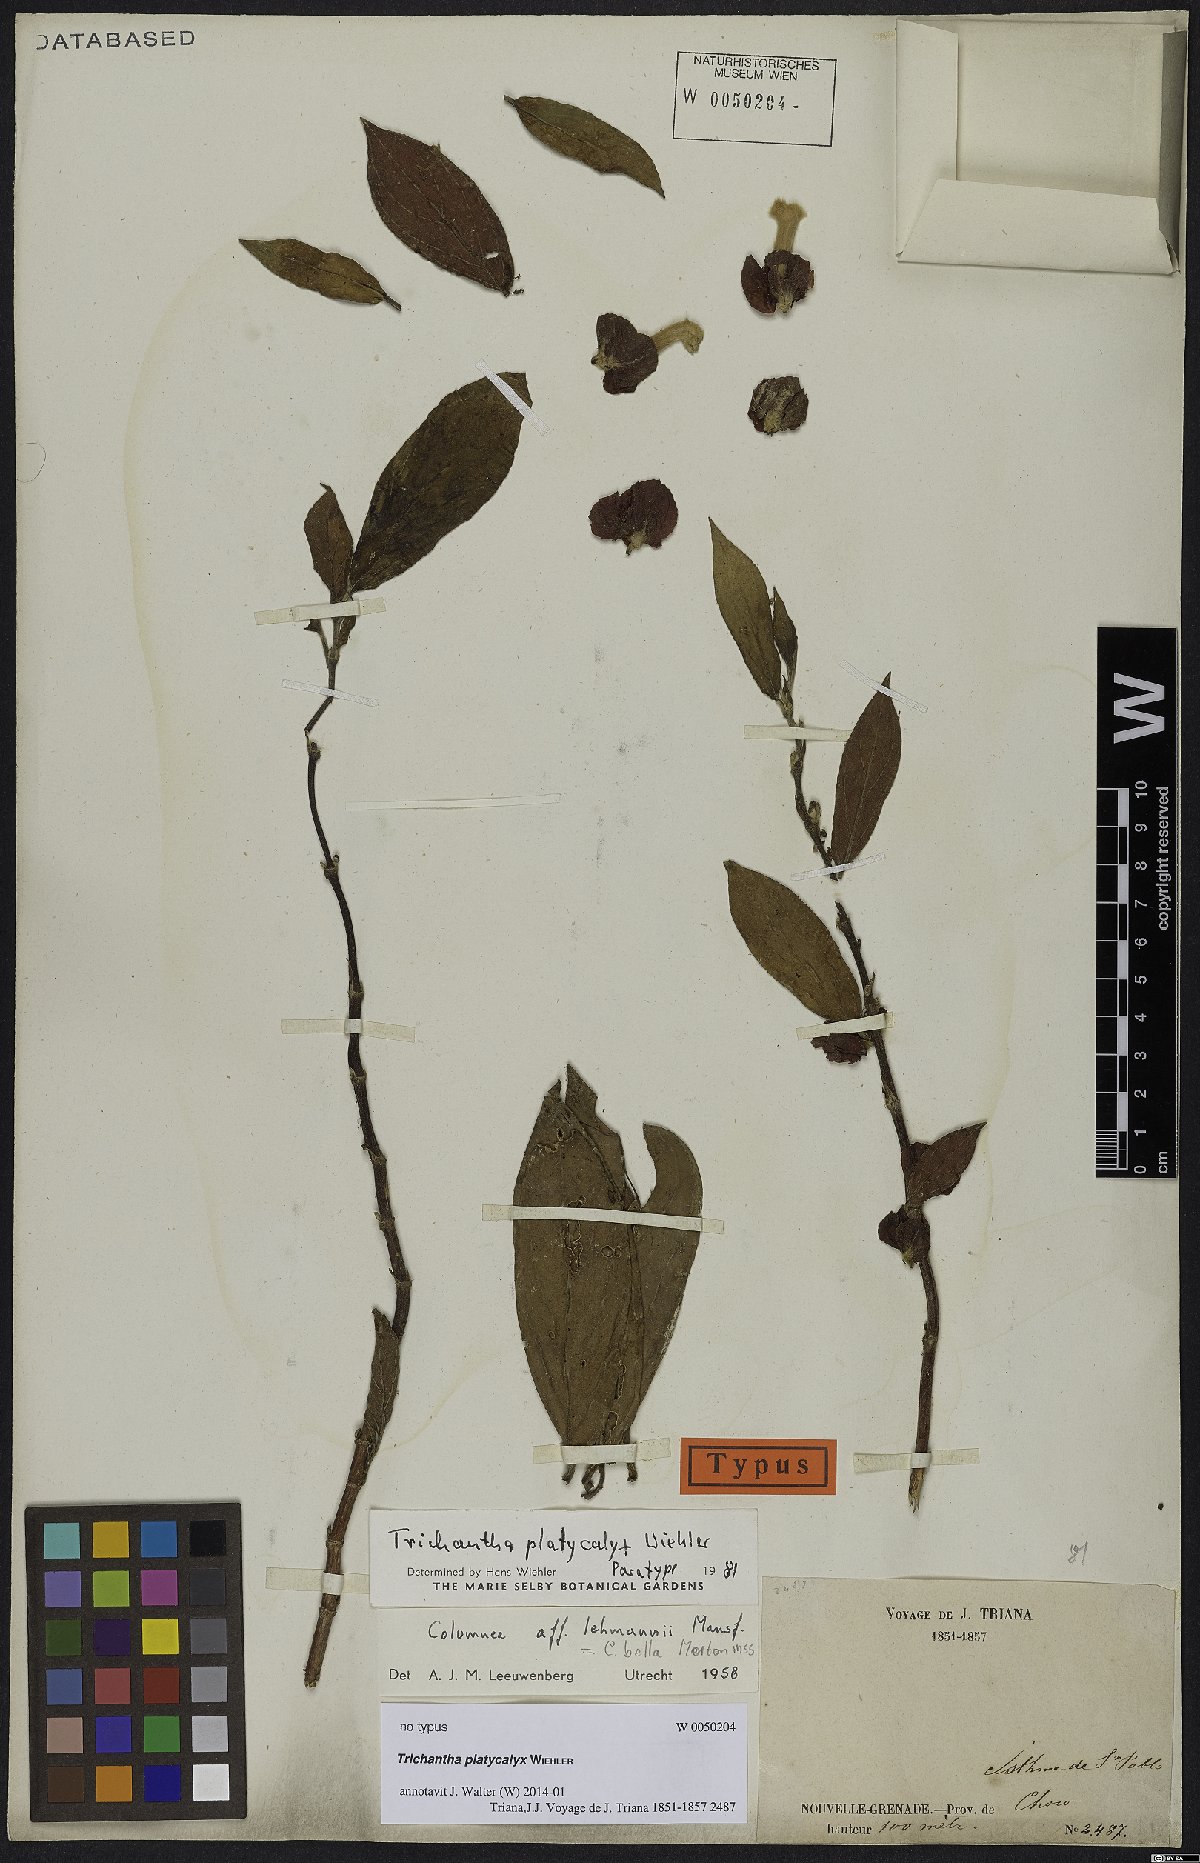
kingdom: Plantae
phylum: Tracheophyta
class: Magnoliopsida
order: Lamiales
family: Gesneriaceae
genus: Columnea
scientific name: Columnea
